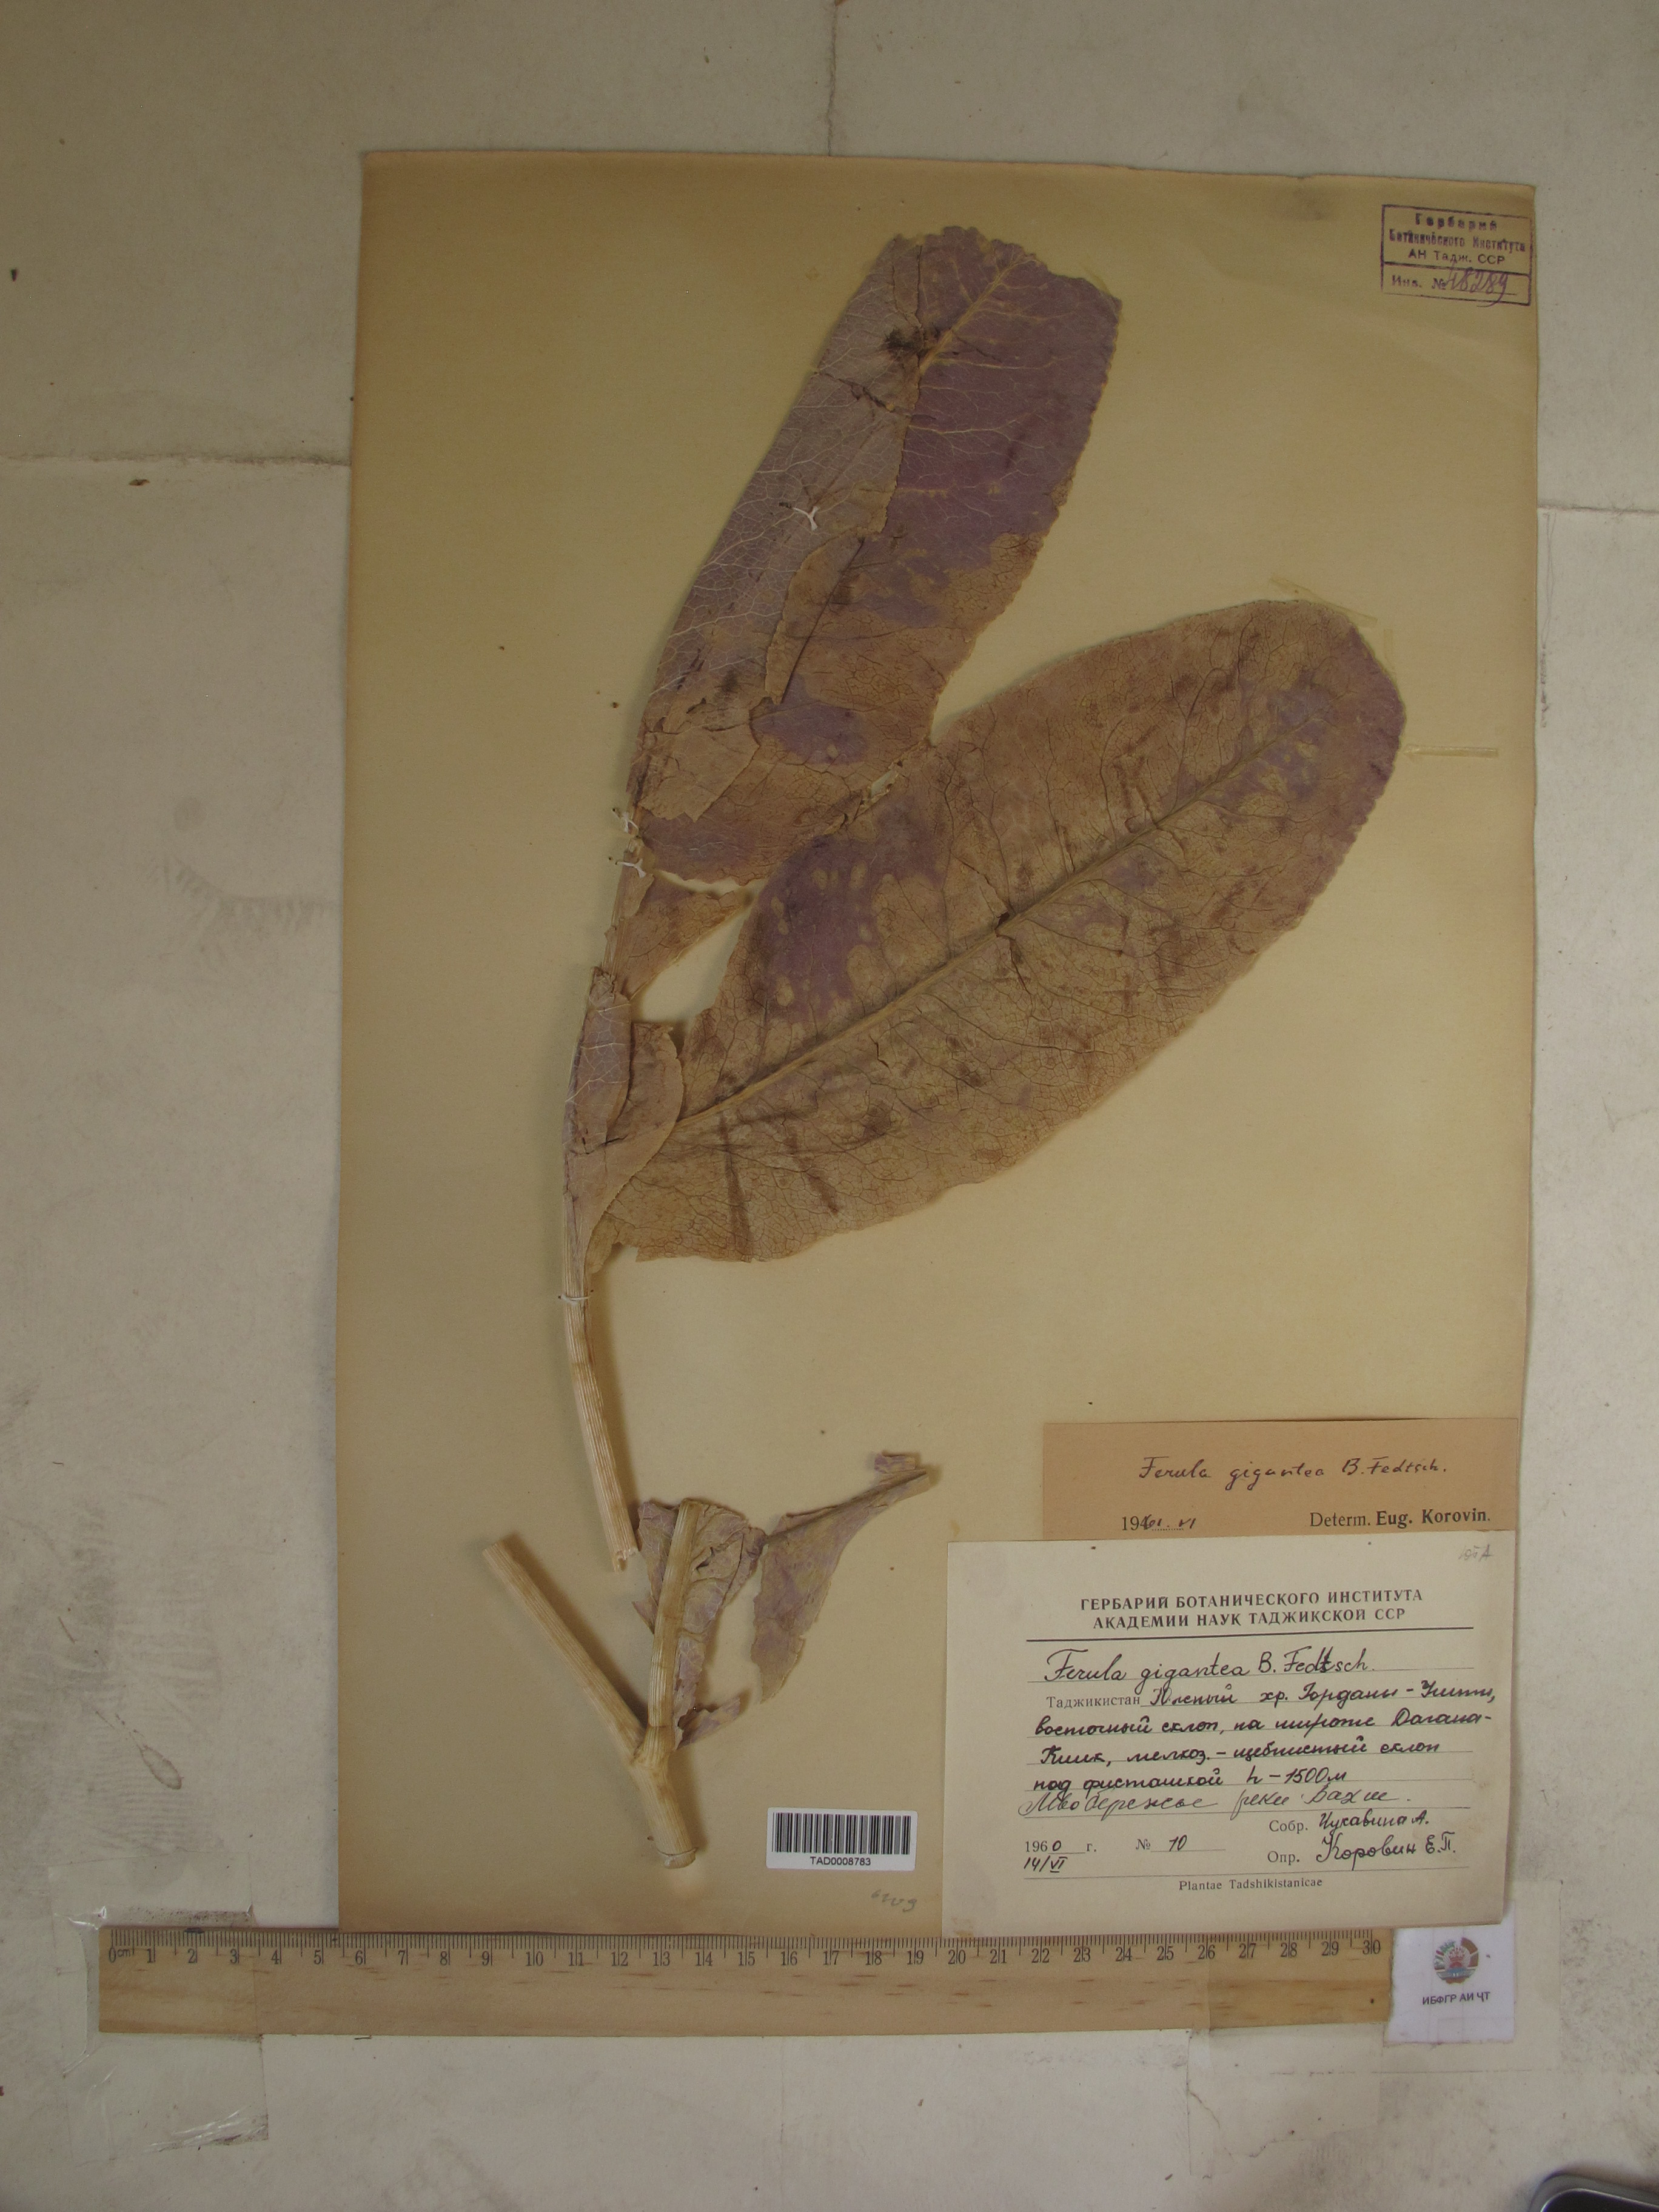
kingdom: Plantae
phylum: Tracheophyta
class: Magnoliopsida
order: Apiales
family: Apiaceae
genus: Ferula
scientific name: Ferula gigantea
